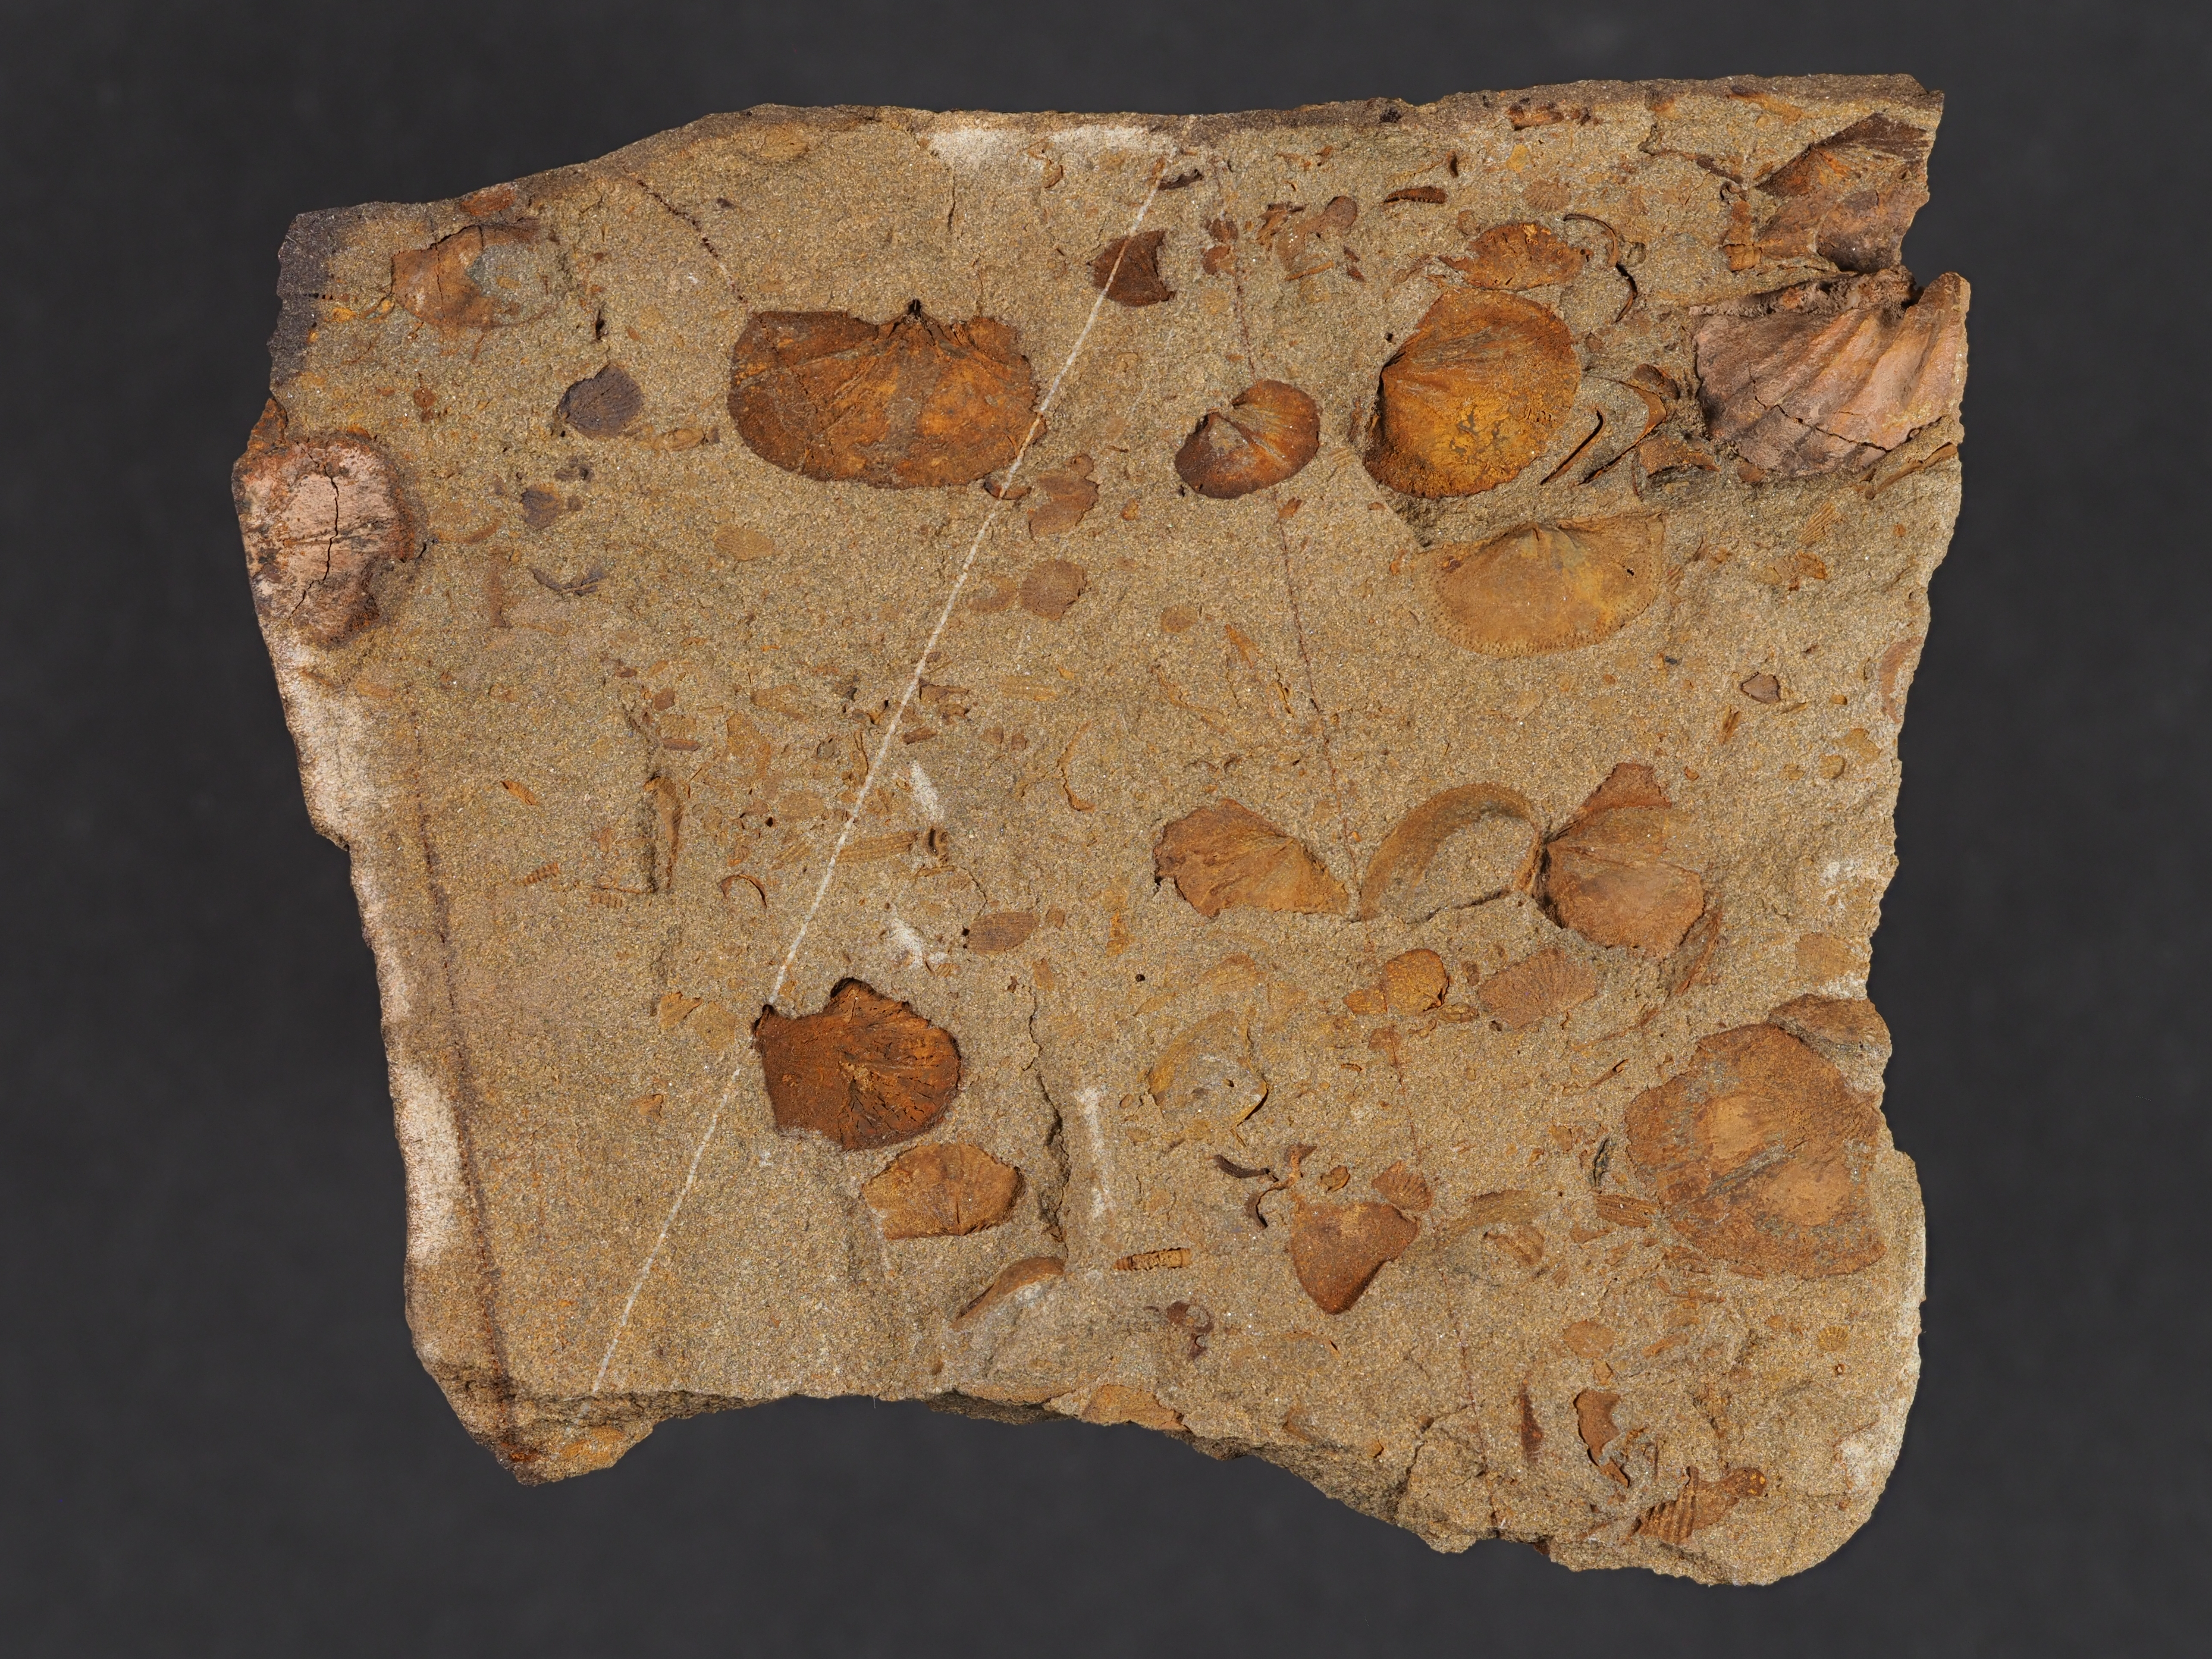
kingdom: Animalia
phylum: Arthropoda
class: Ostracoda
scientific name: Ostracoda
